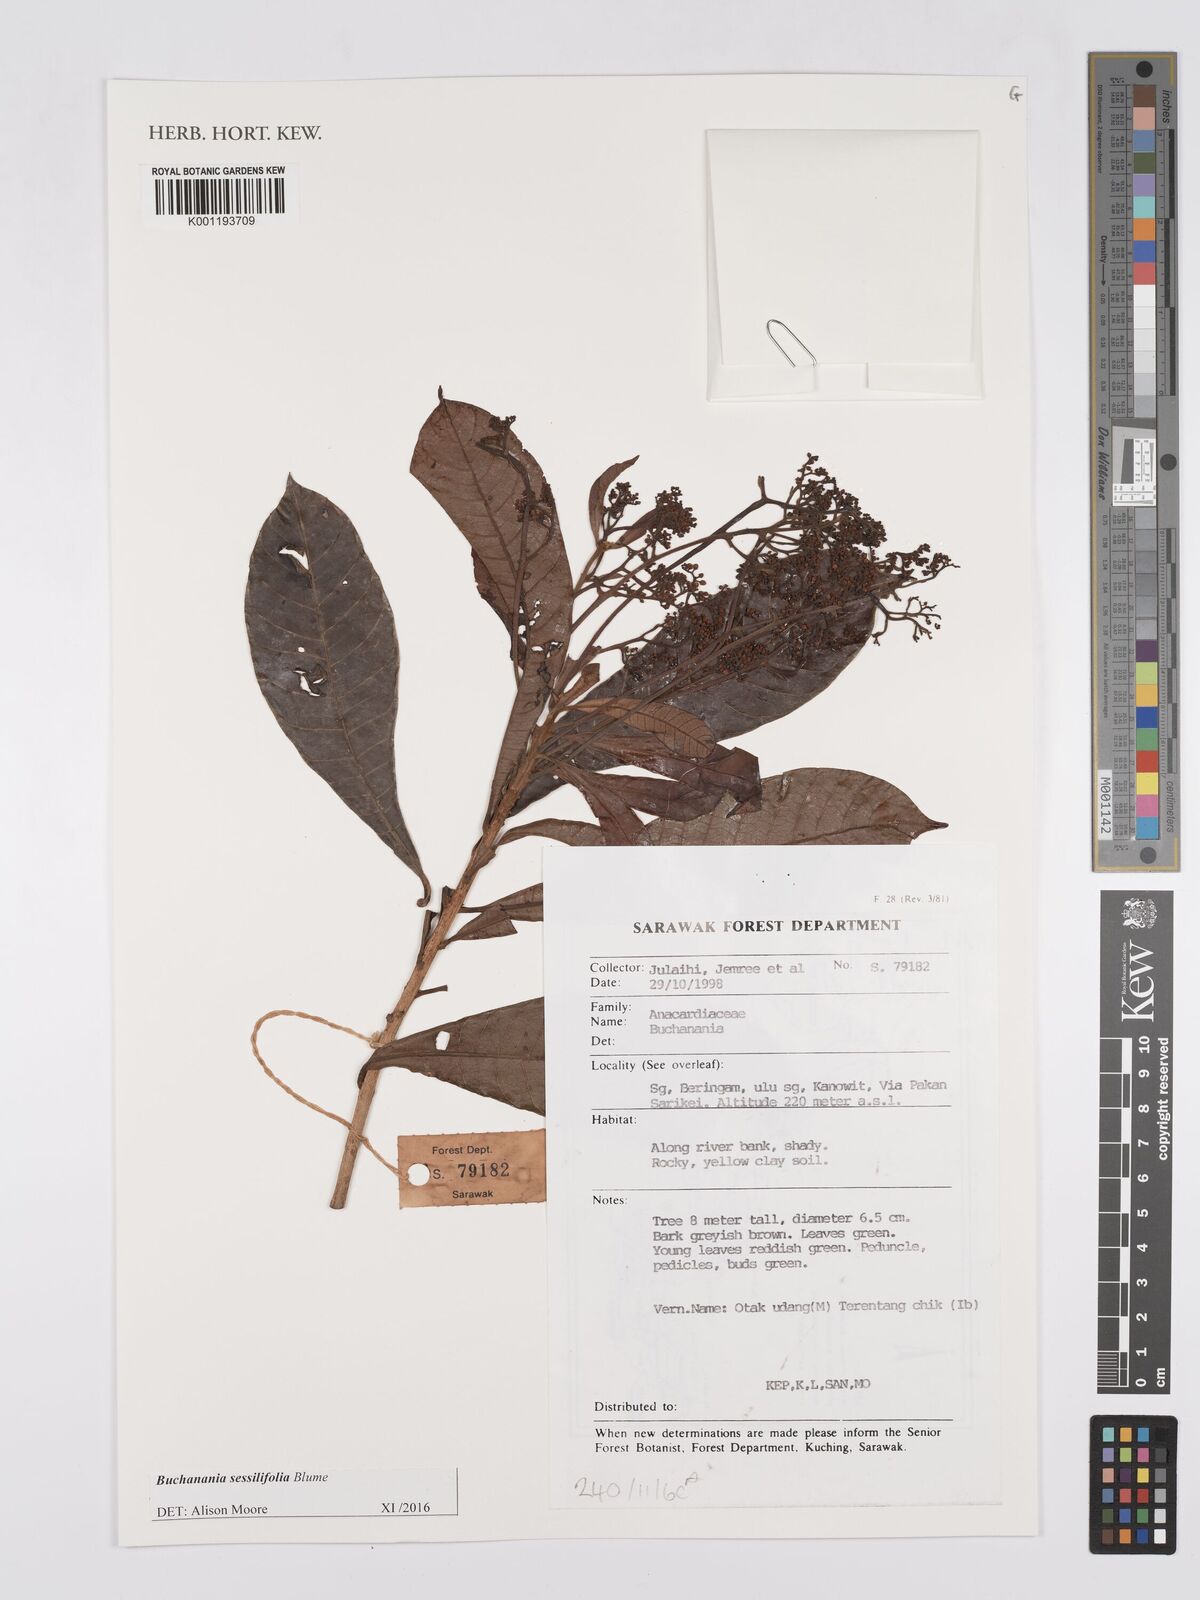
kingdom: Plantae
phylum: Tracheophyta
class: Magnoliopsida
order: Sapindales
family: Anacardiaceae
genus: Buchanania
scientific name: Buchanania sessifolia
